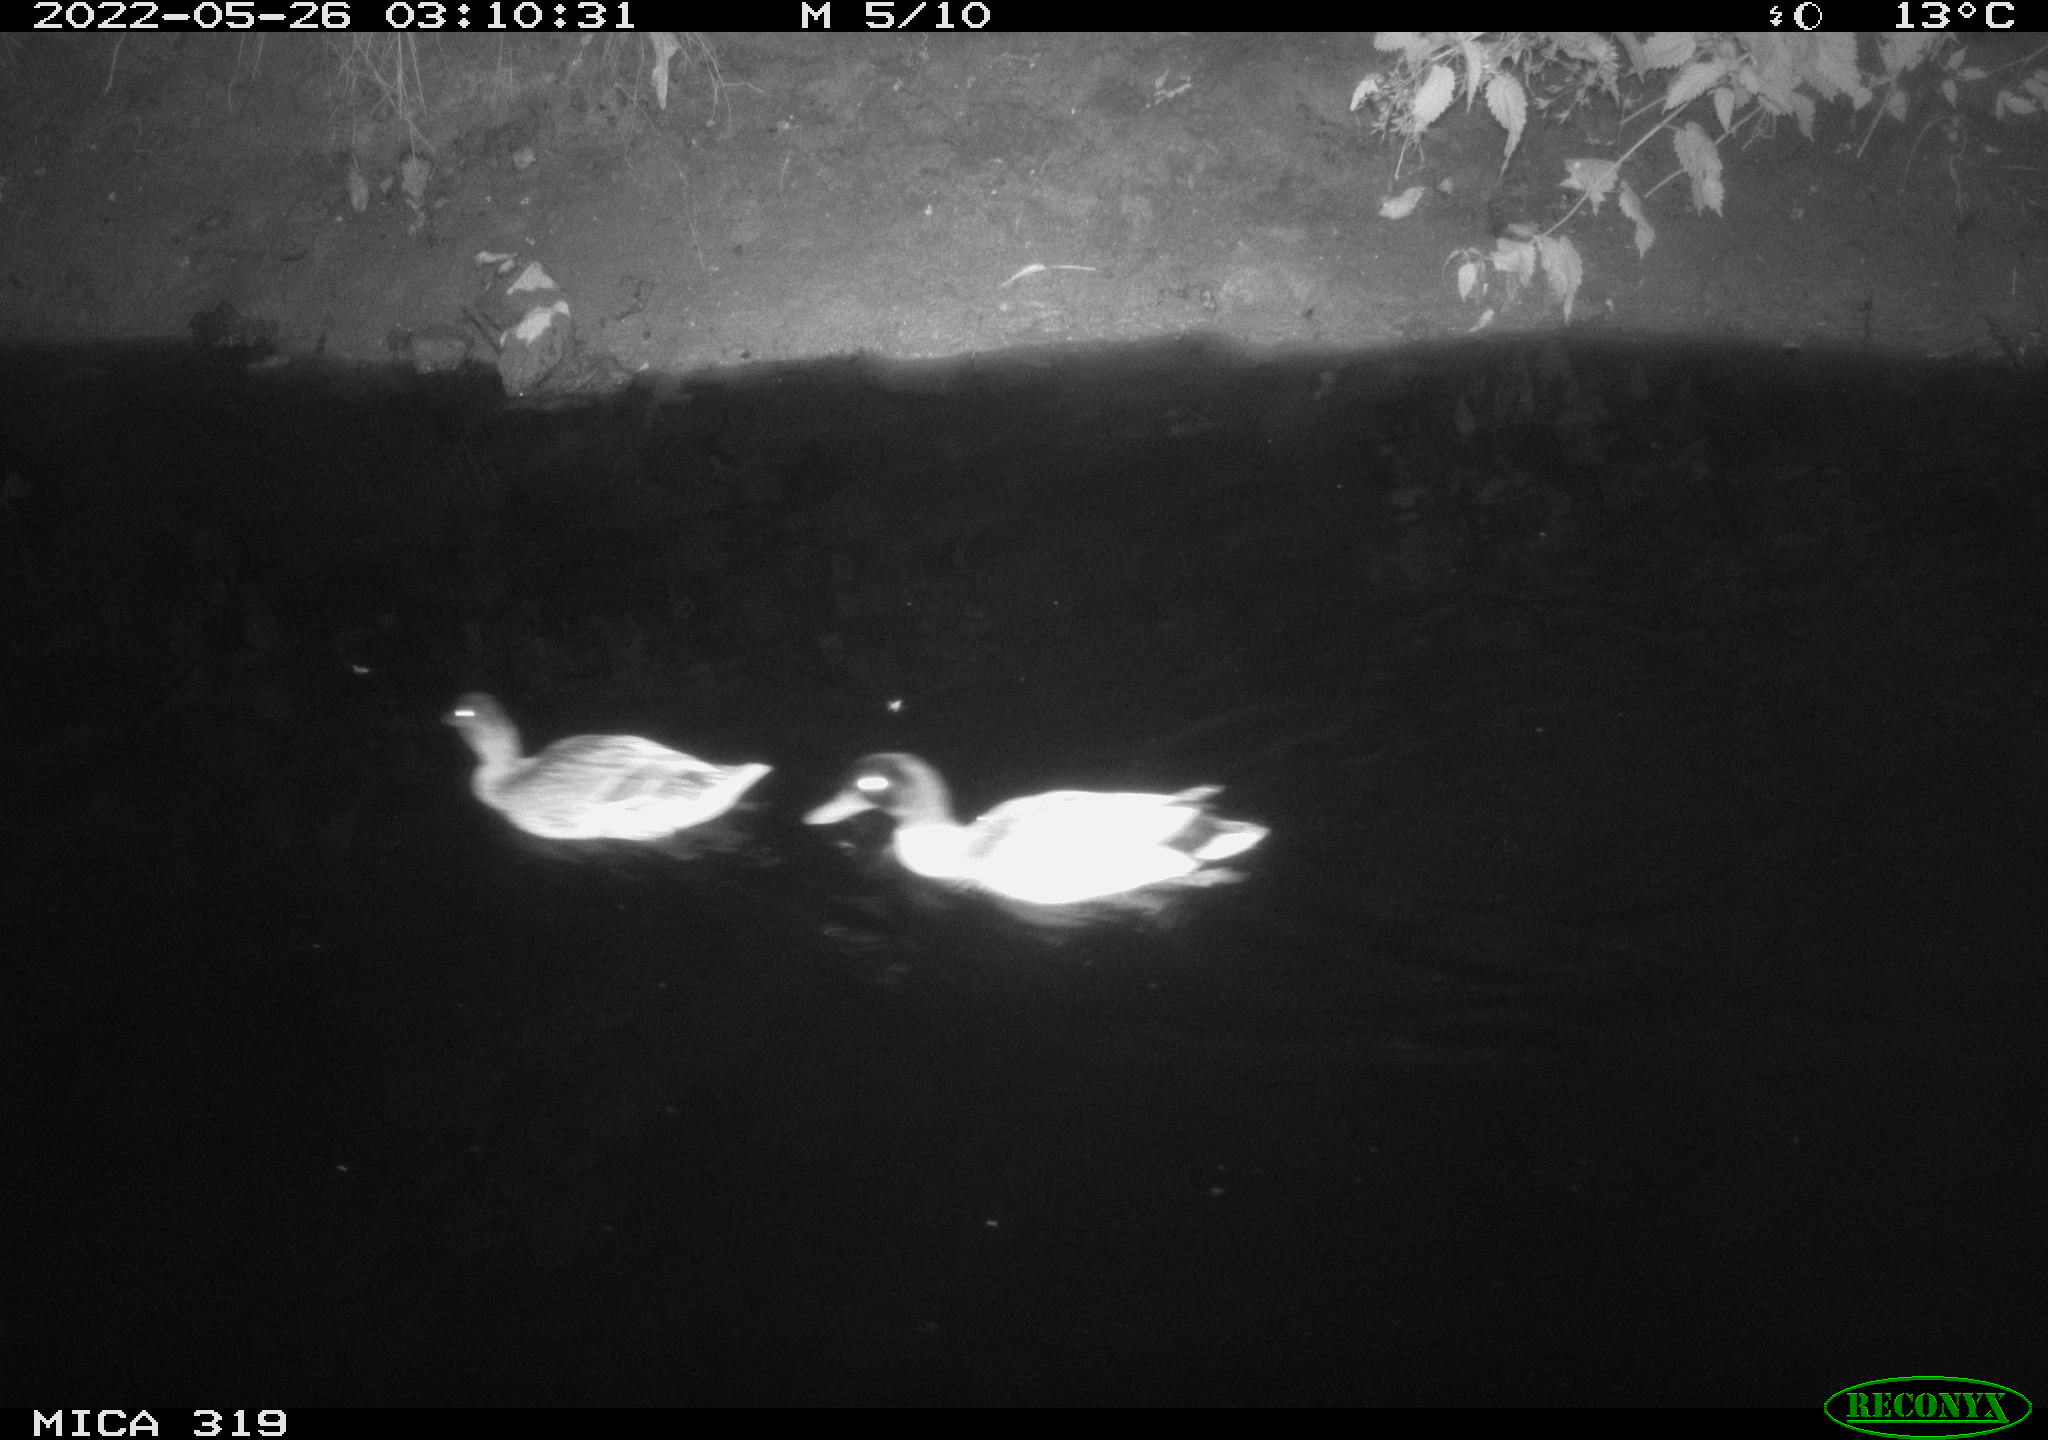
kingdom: Animalia
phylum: Chordata
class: Aves
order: Anseriformes
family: Anatidae
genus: Anas
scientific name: Anas
